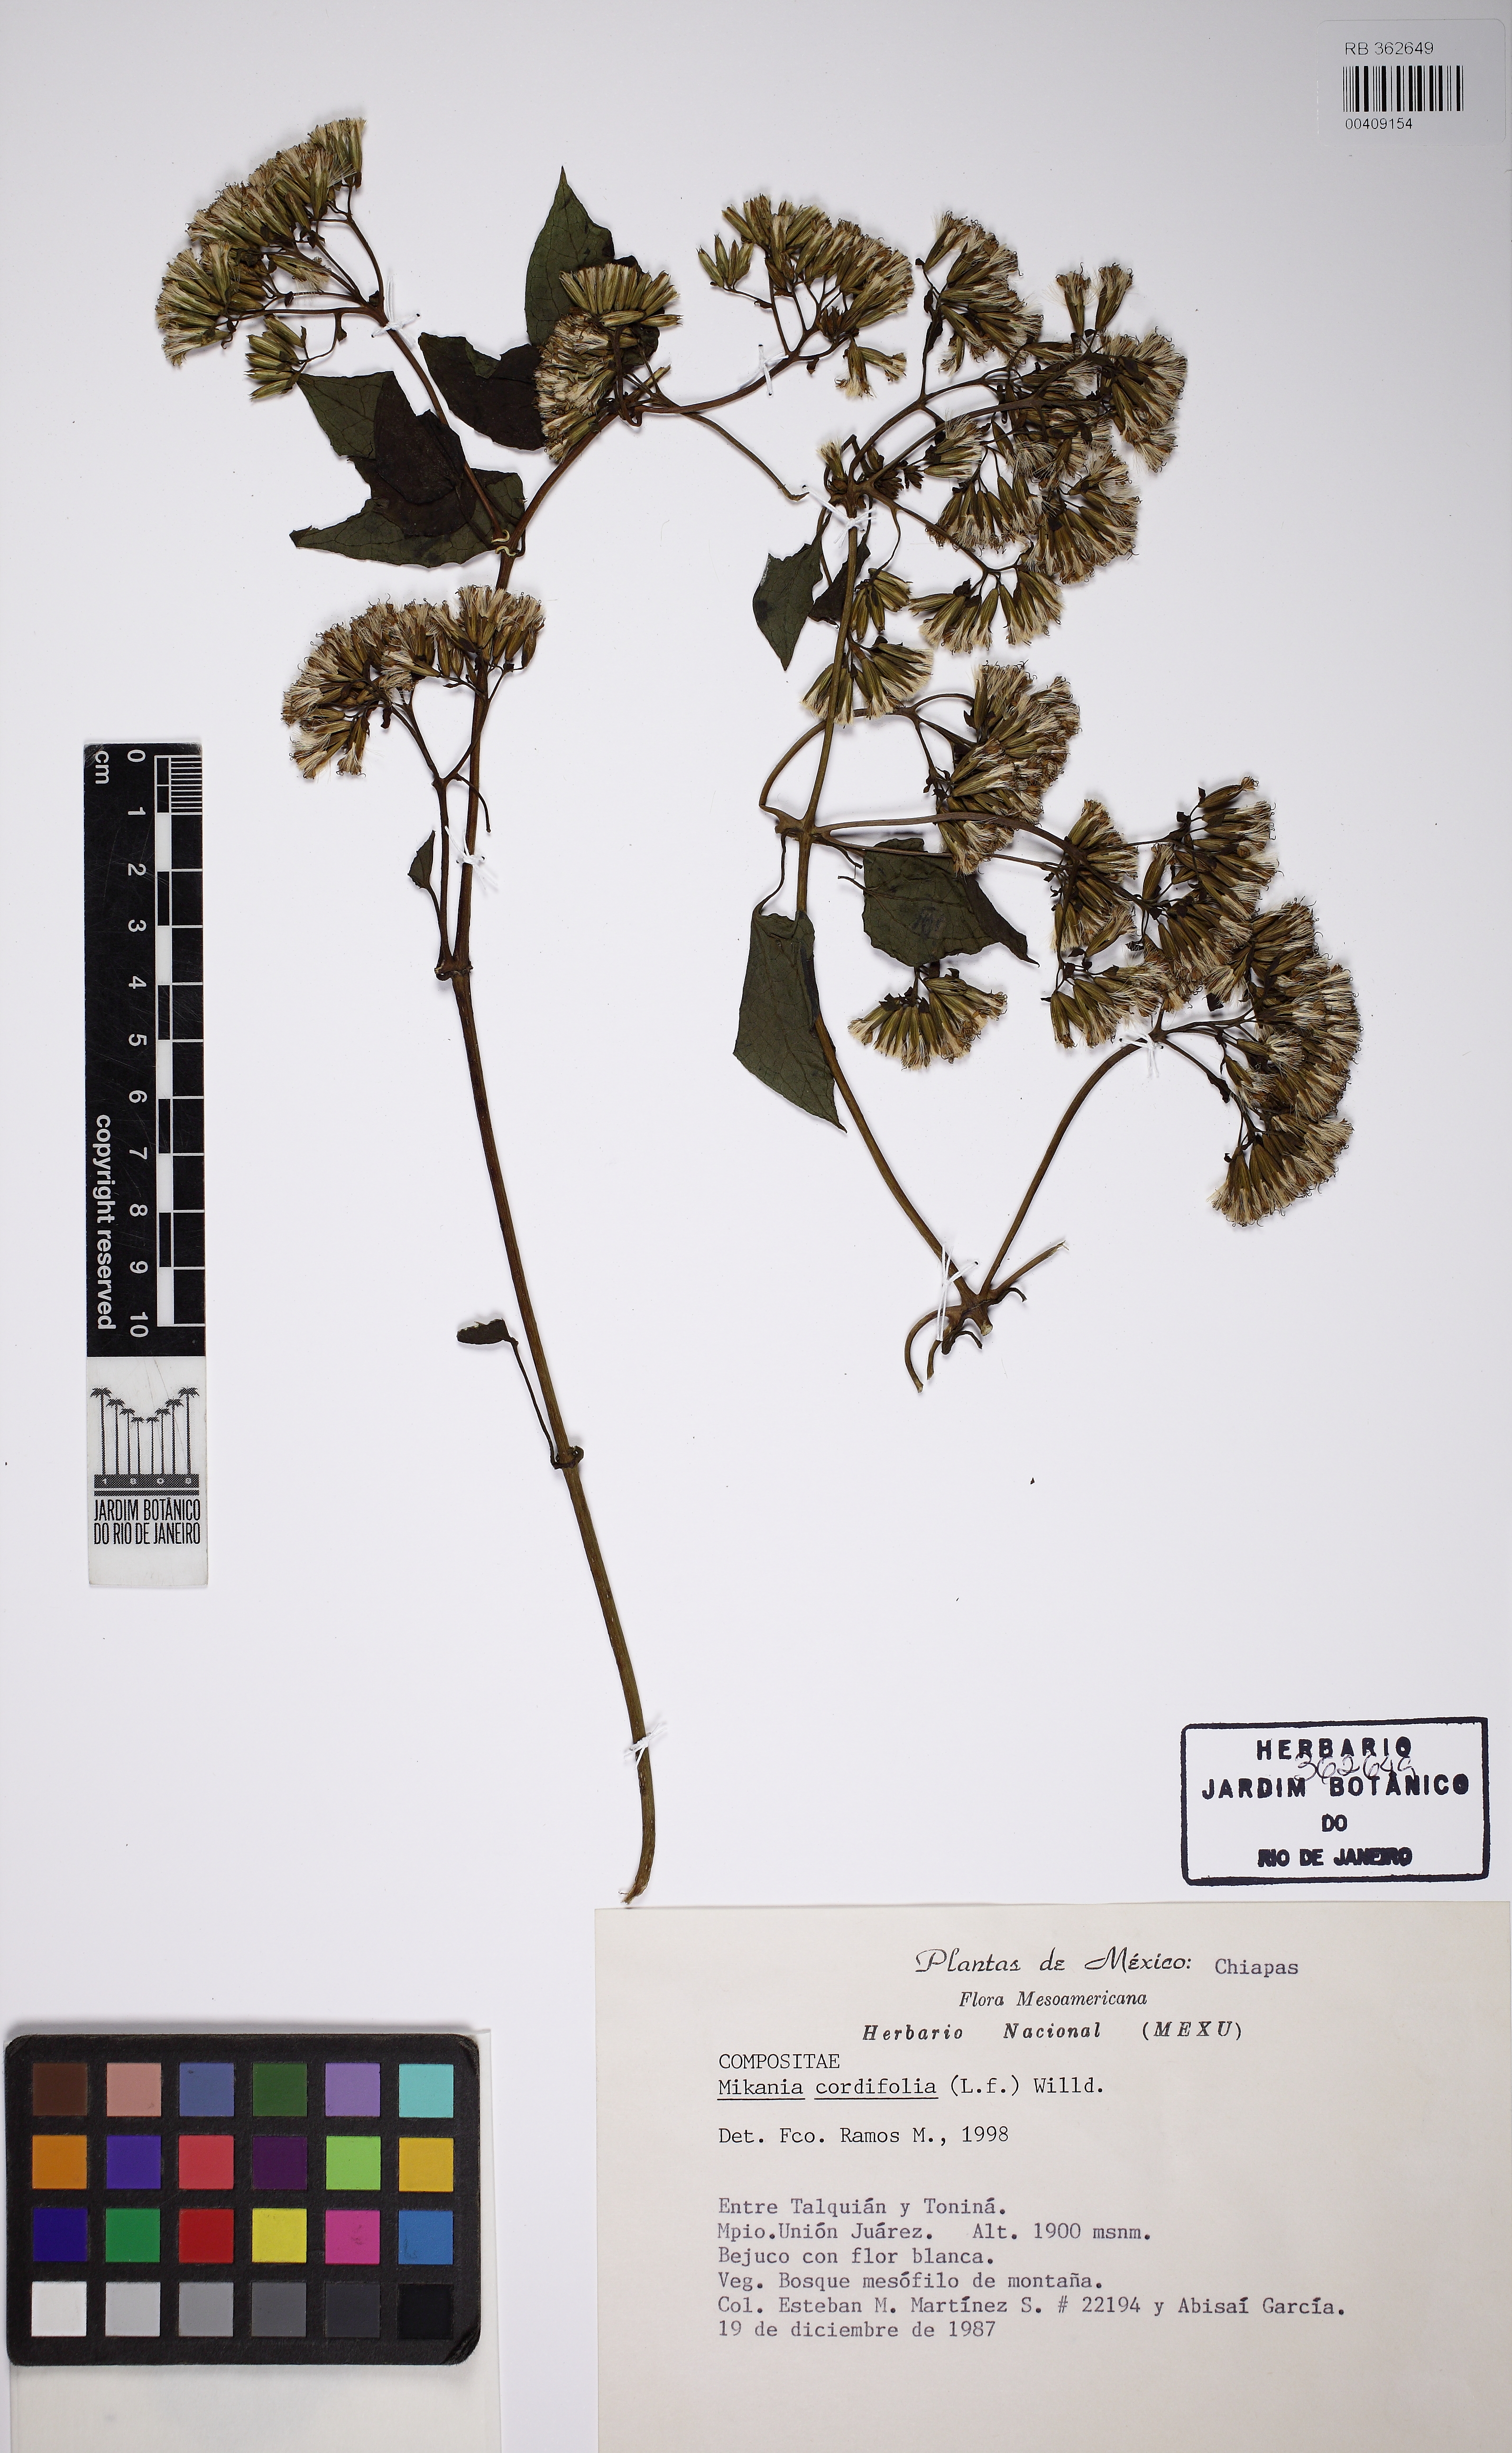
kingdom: Plantae
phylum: Tracheophyta
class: Magnoliopsida
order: Asterales
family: Asteraceae
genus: Mikania
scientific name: Mikania cordifolia
